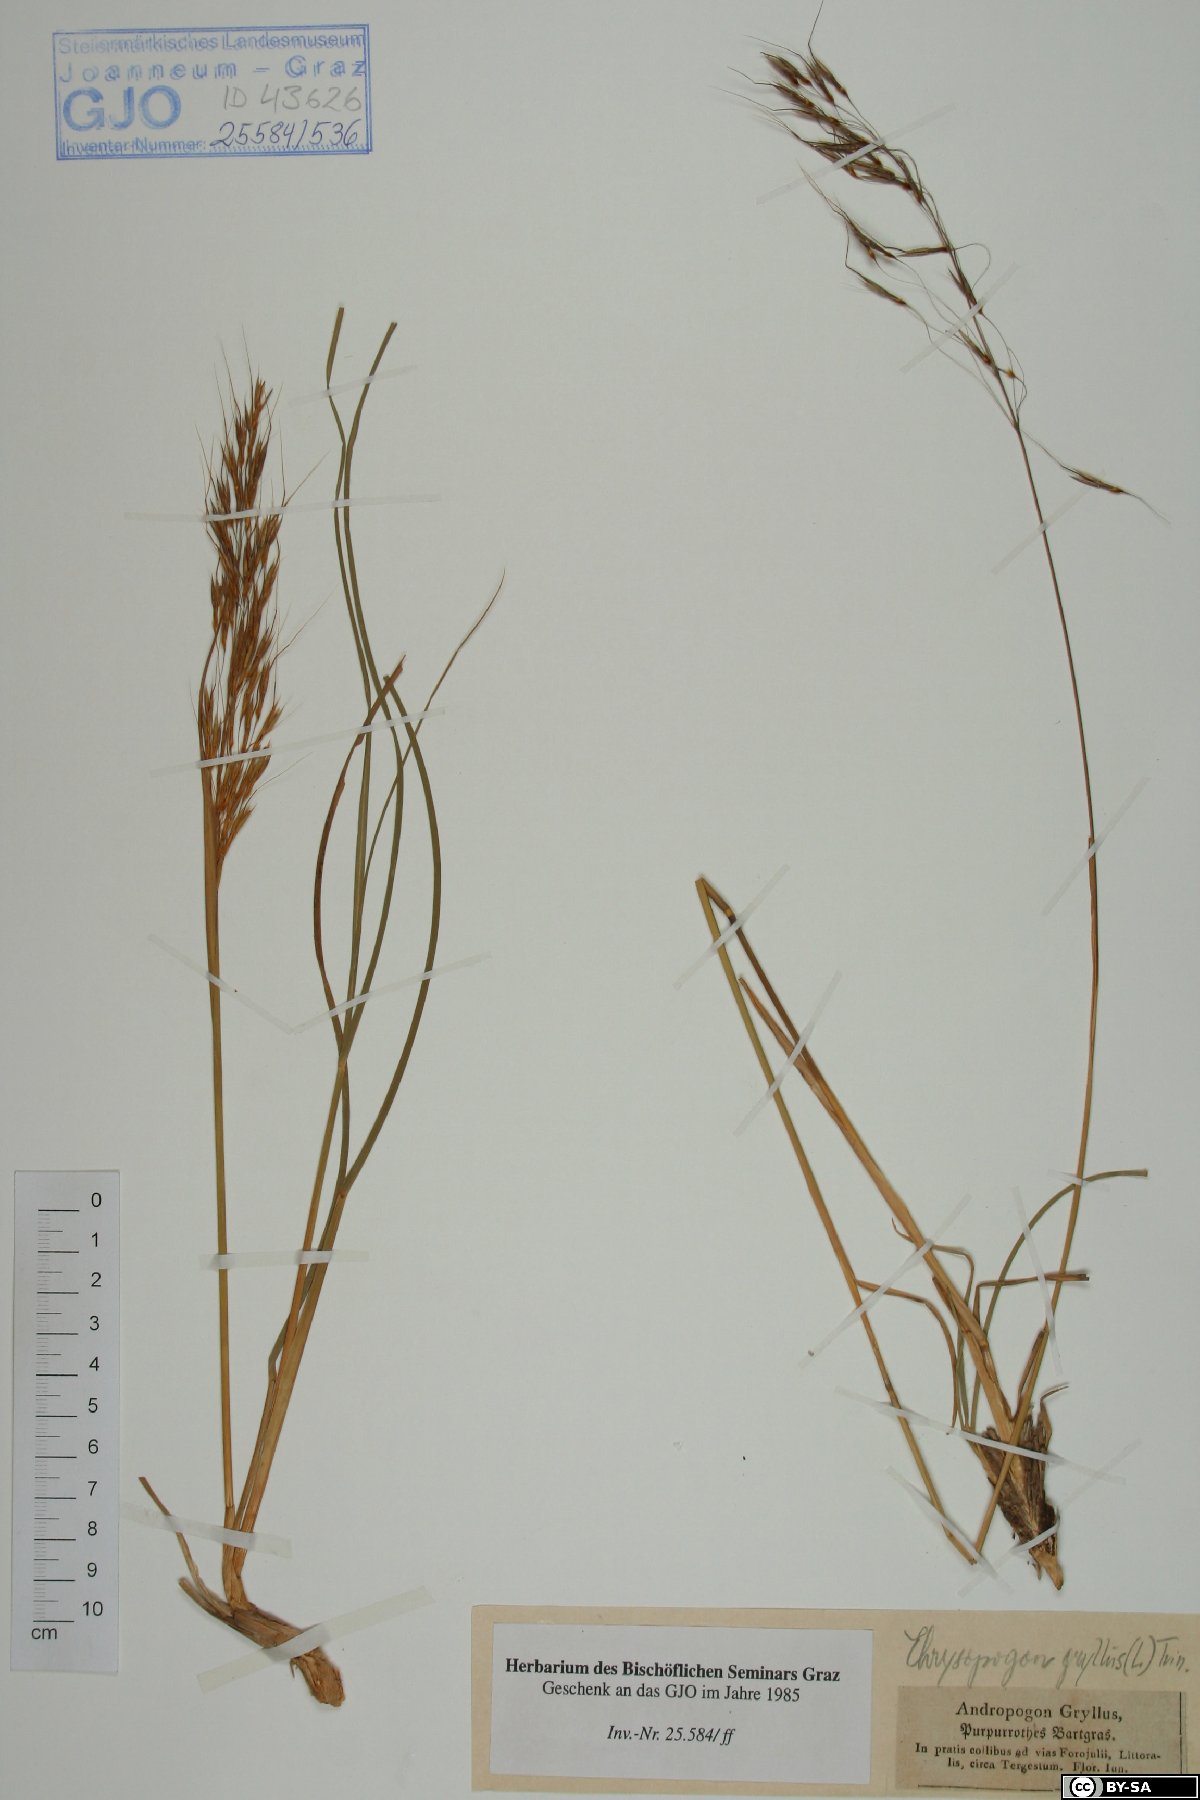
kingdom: Plantae
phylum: Tracheophyta
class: Liliopsida
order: Poales
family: Poaceae
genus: Chrysopogon
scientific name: Chrysopogon gryllus
